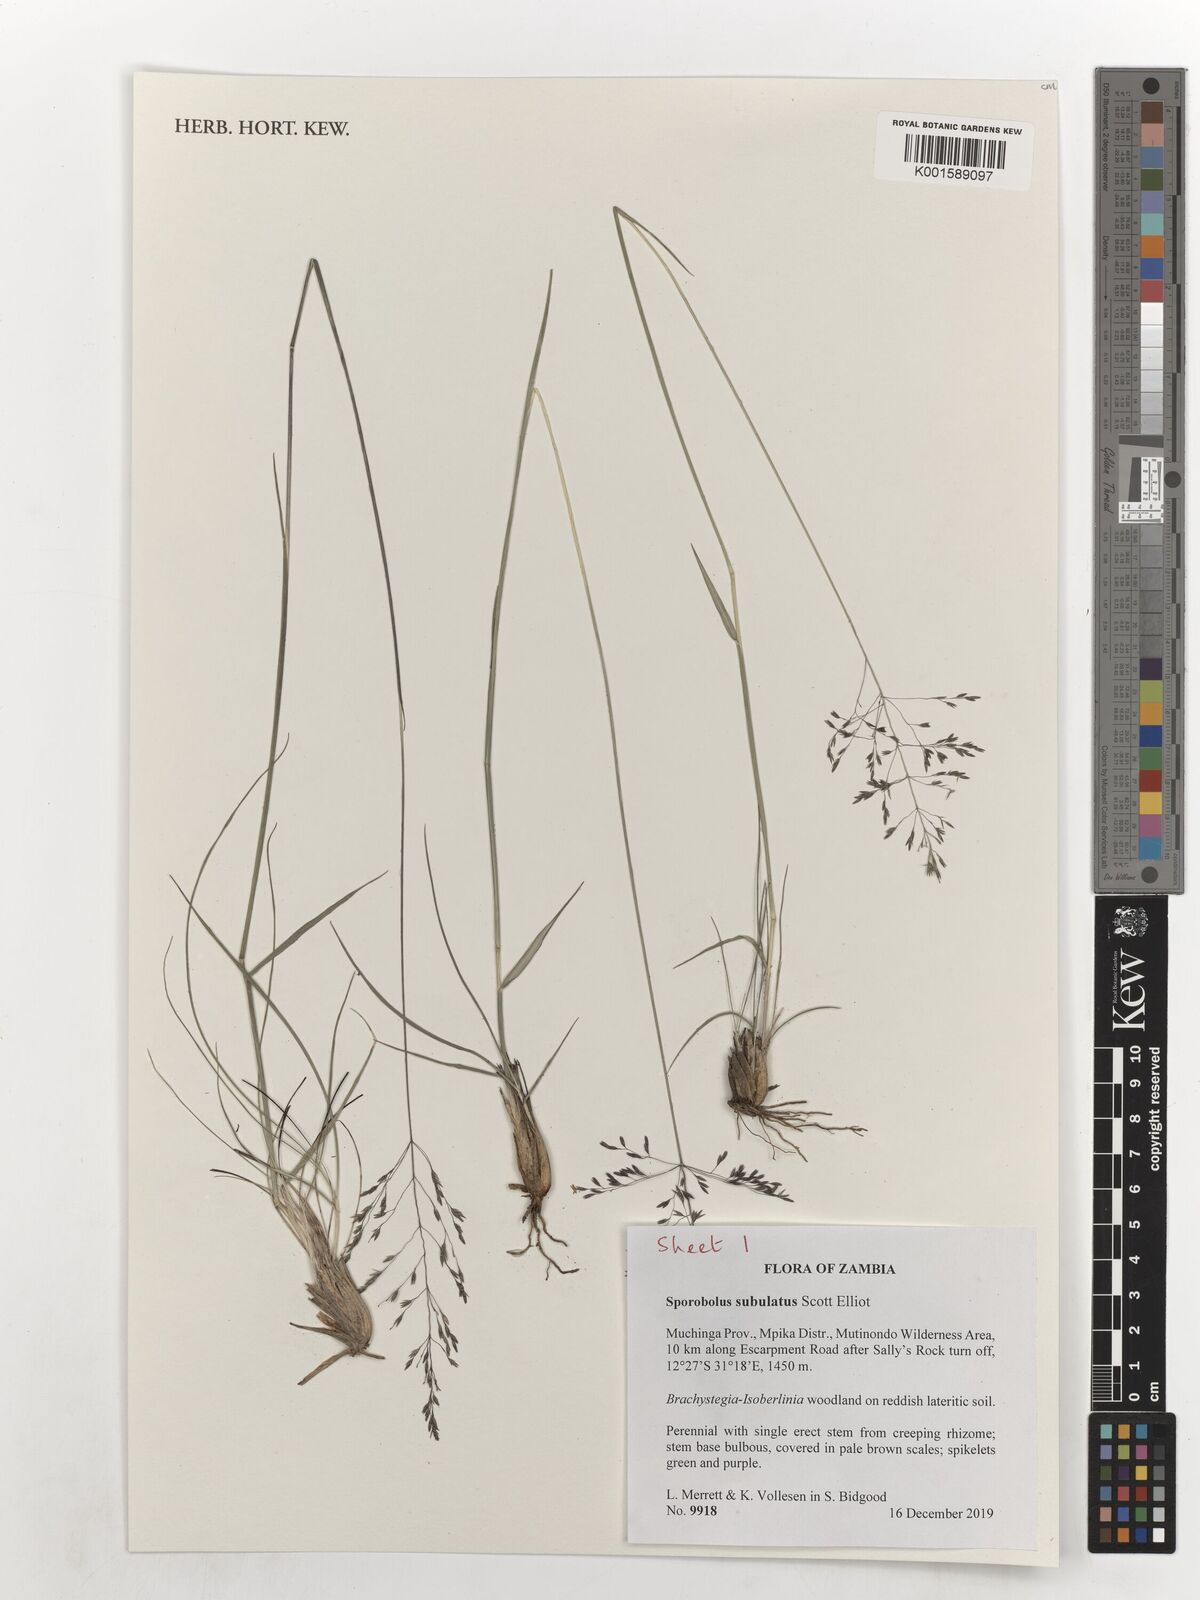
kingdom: Plantae
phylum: Tracheophyta
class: Liliopsida
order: Poales
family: Poaceae
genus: Sporobolus
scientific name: Sporobolus subulatus
